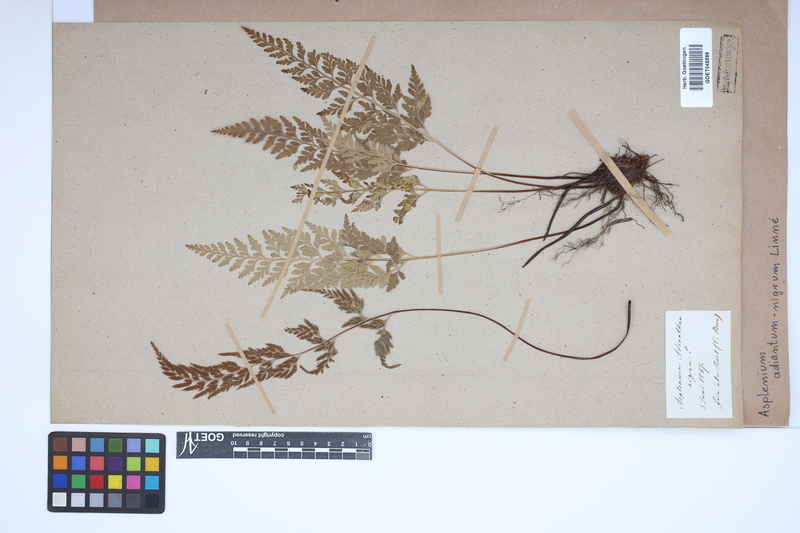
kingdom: Plantae
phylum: Tracheophyta
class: Polypodiopsida
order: Polypodiales
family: Aspleniaceae
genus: Asplenium
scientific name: Asplenium adiantum-nigrum
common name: Black spleenwort
